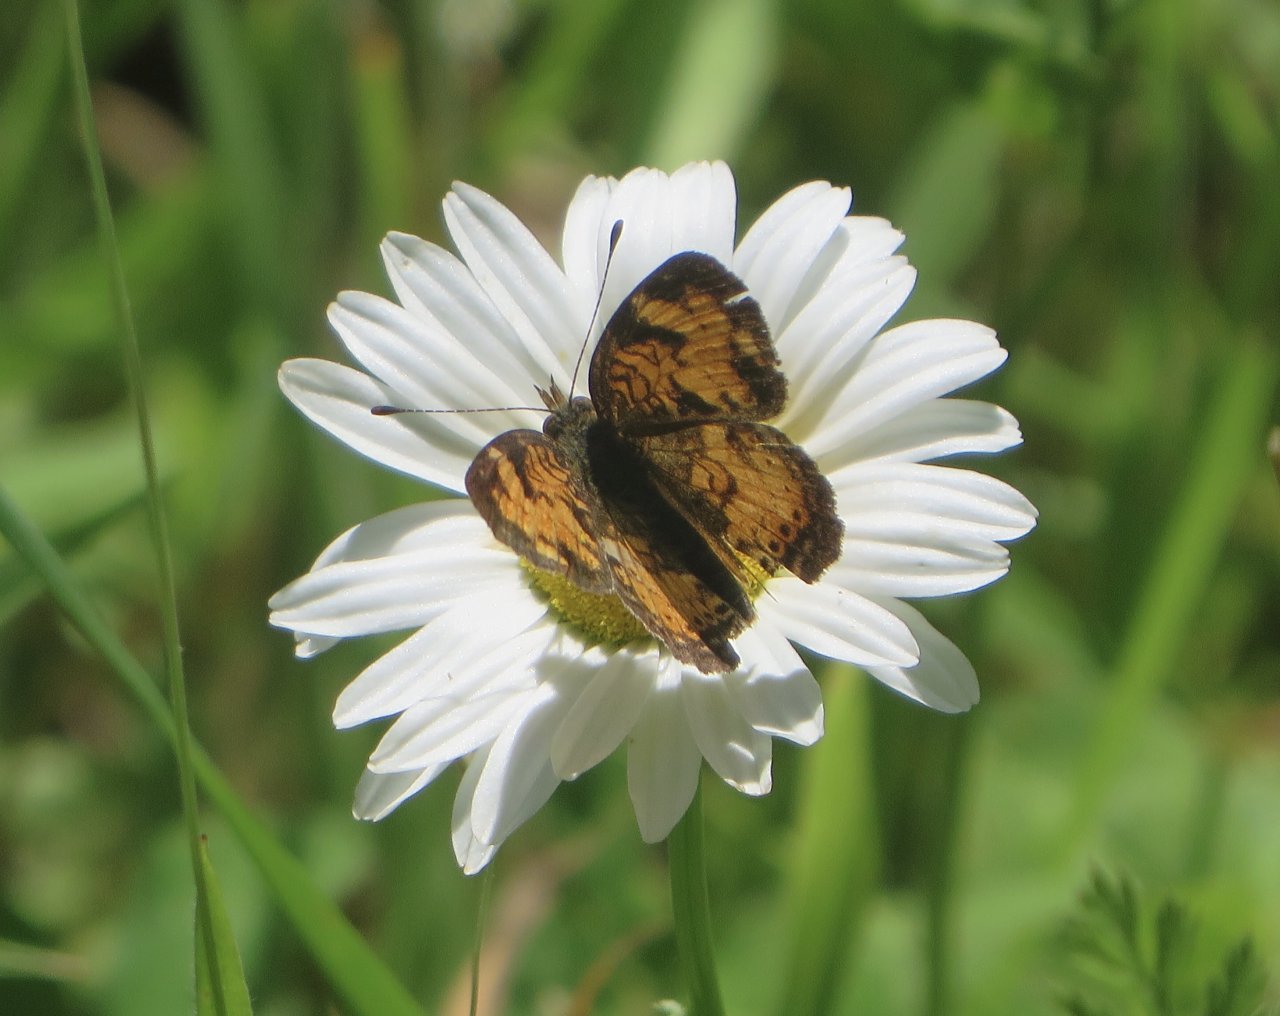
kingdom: Animalia
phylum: Arthropoda
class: Insecta
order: Lepidoptera
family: Nymphalidae
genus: Phyciodes
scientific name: Phyciodes tharos
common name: Pearl Crescent
